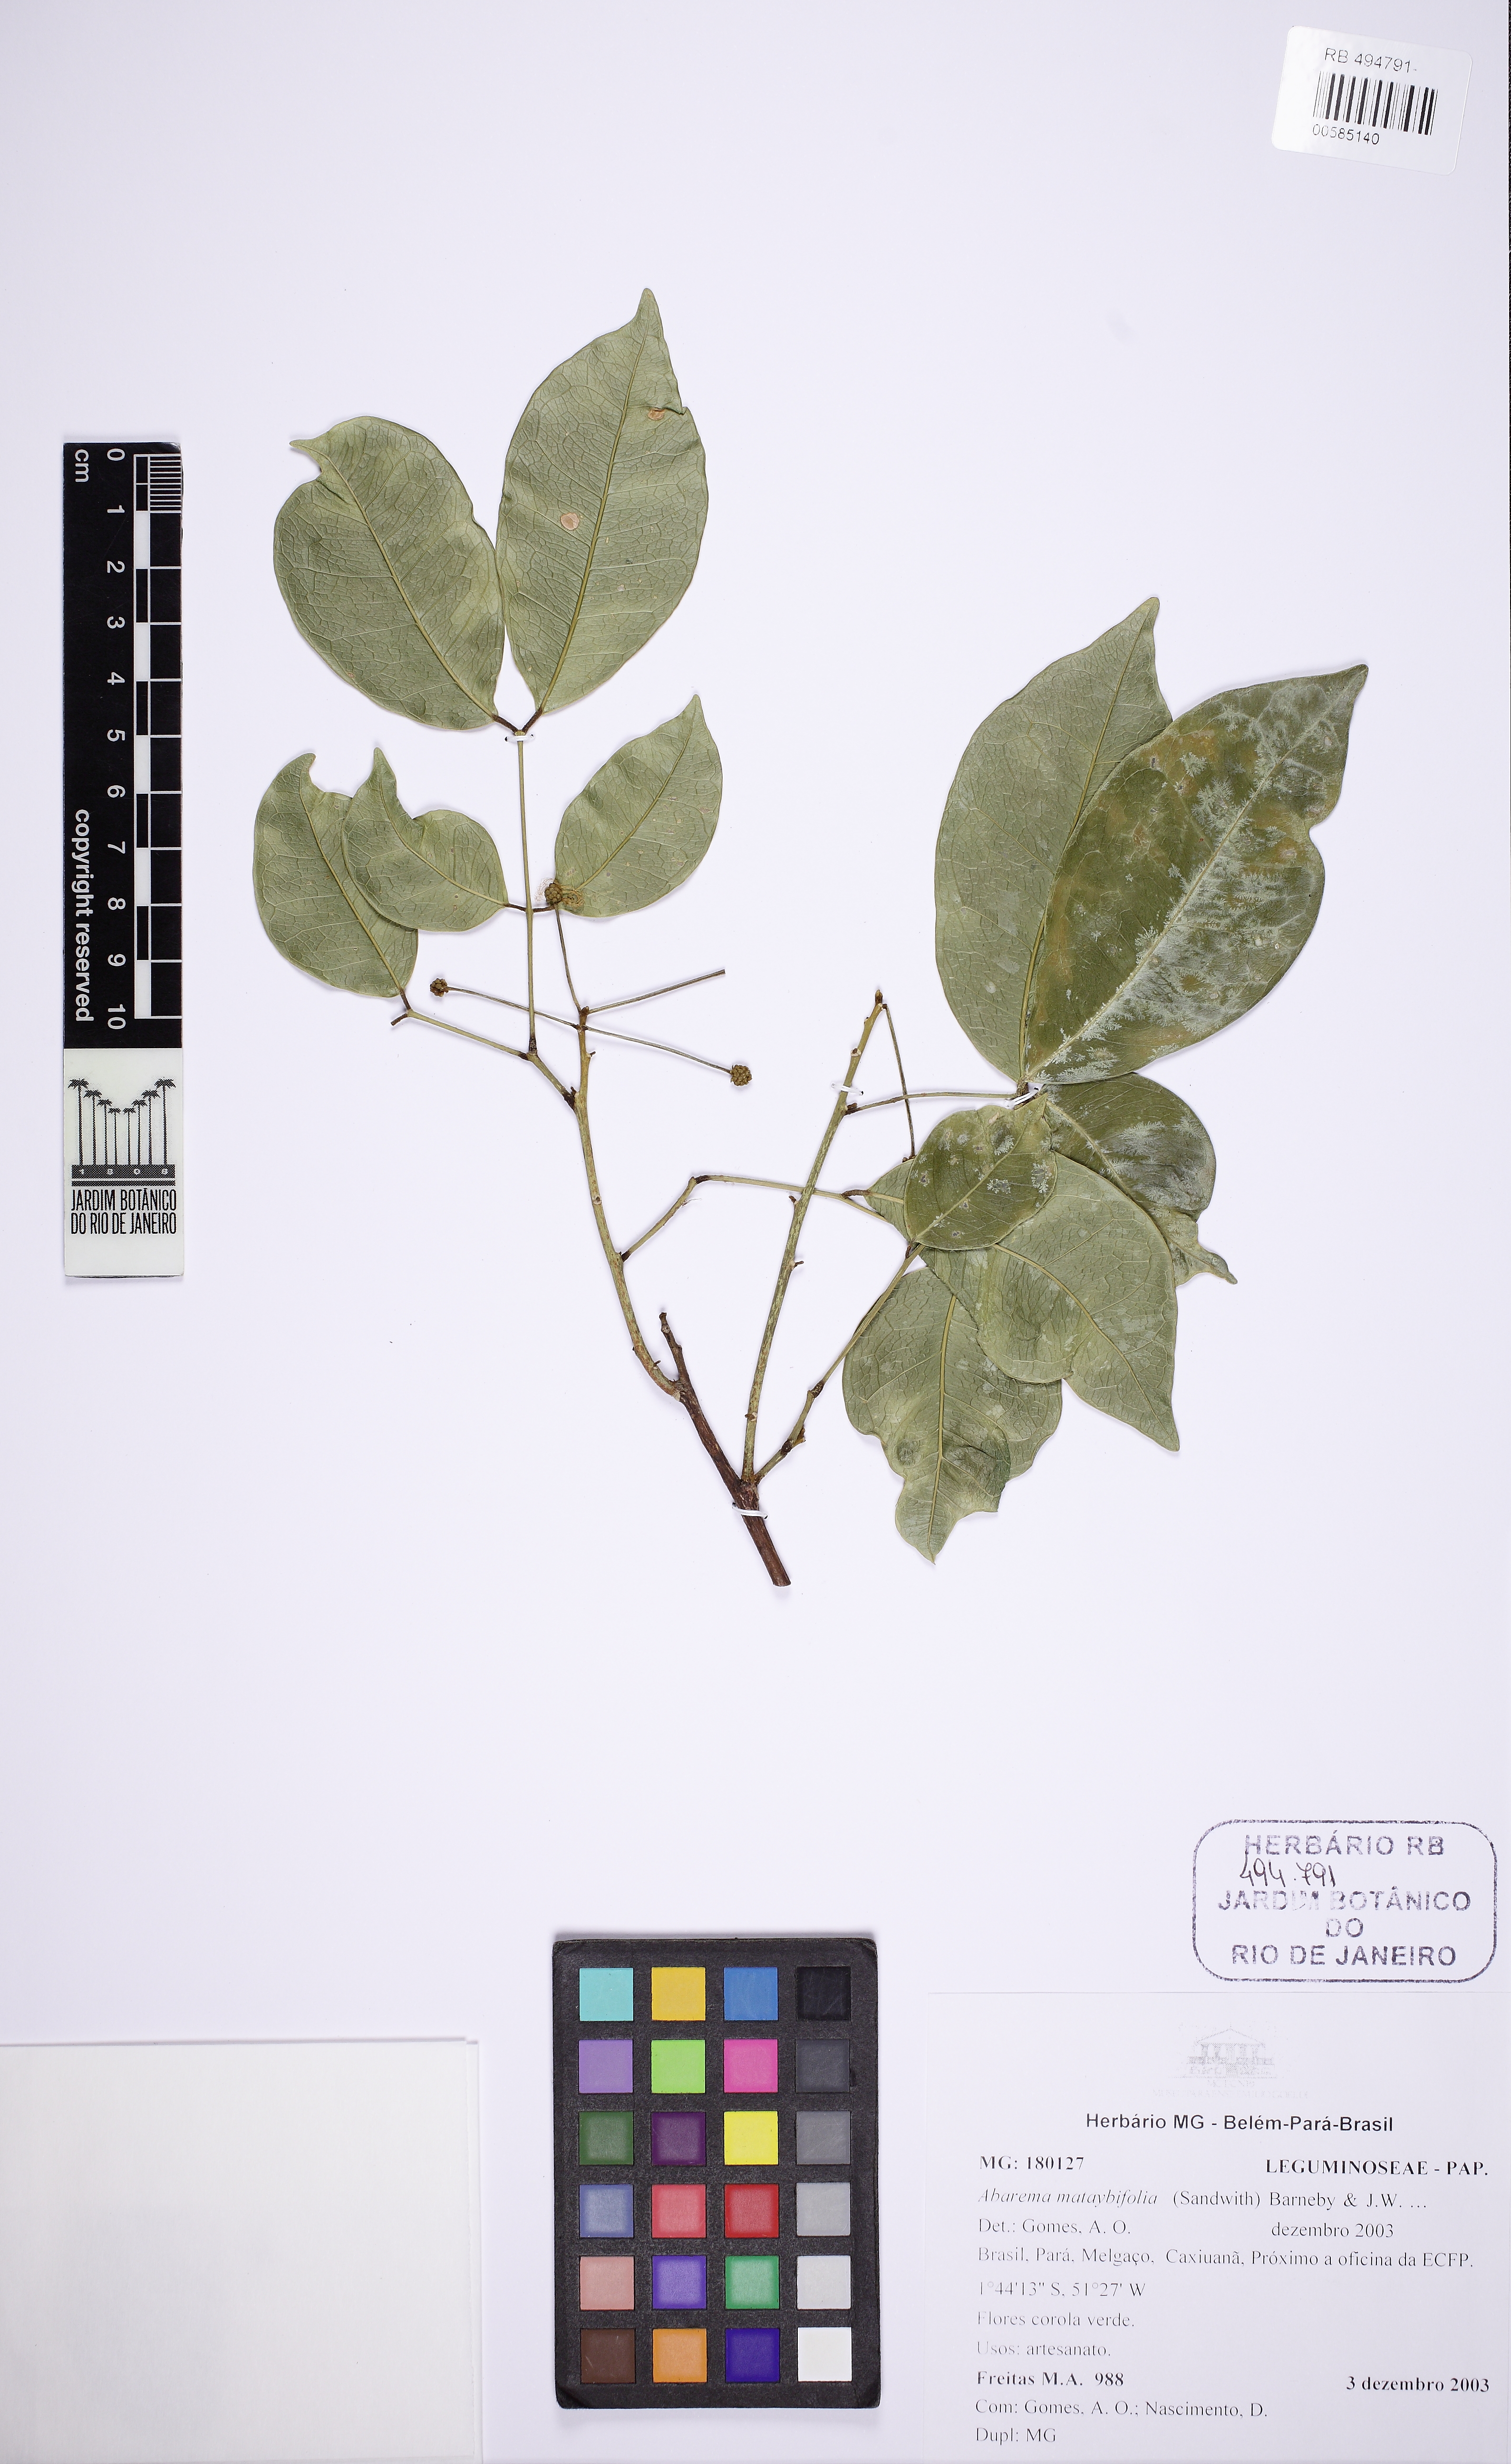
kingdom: Plantae
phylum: Tracheophyta
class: Magnoliopsida
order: Fabales
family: Fabaceae
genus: Jupunba
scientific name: Jupunba mataybifolia
